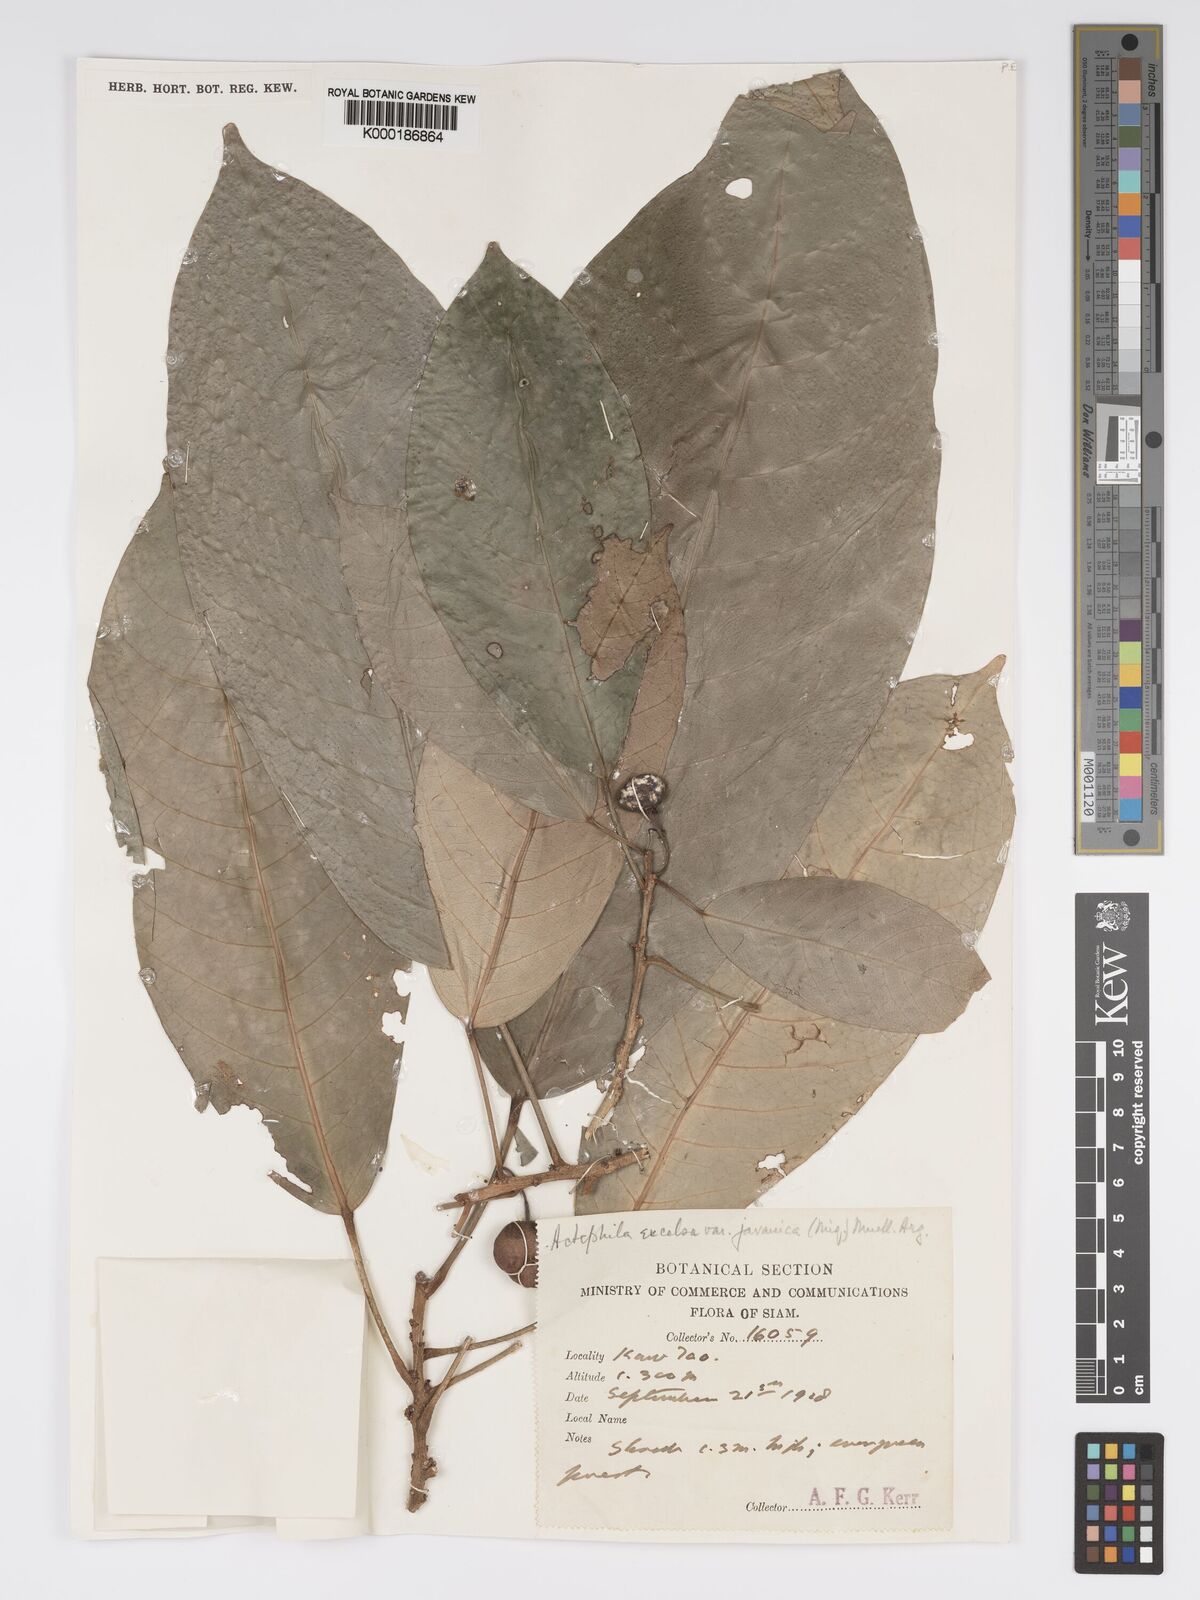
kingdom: Plantae
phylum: Tracheophyta
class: Magnoliopsida
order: Malpighiales
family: Phyllanthaceae
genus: Actephila
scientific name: Actephila
